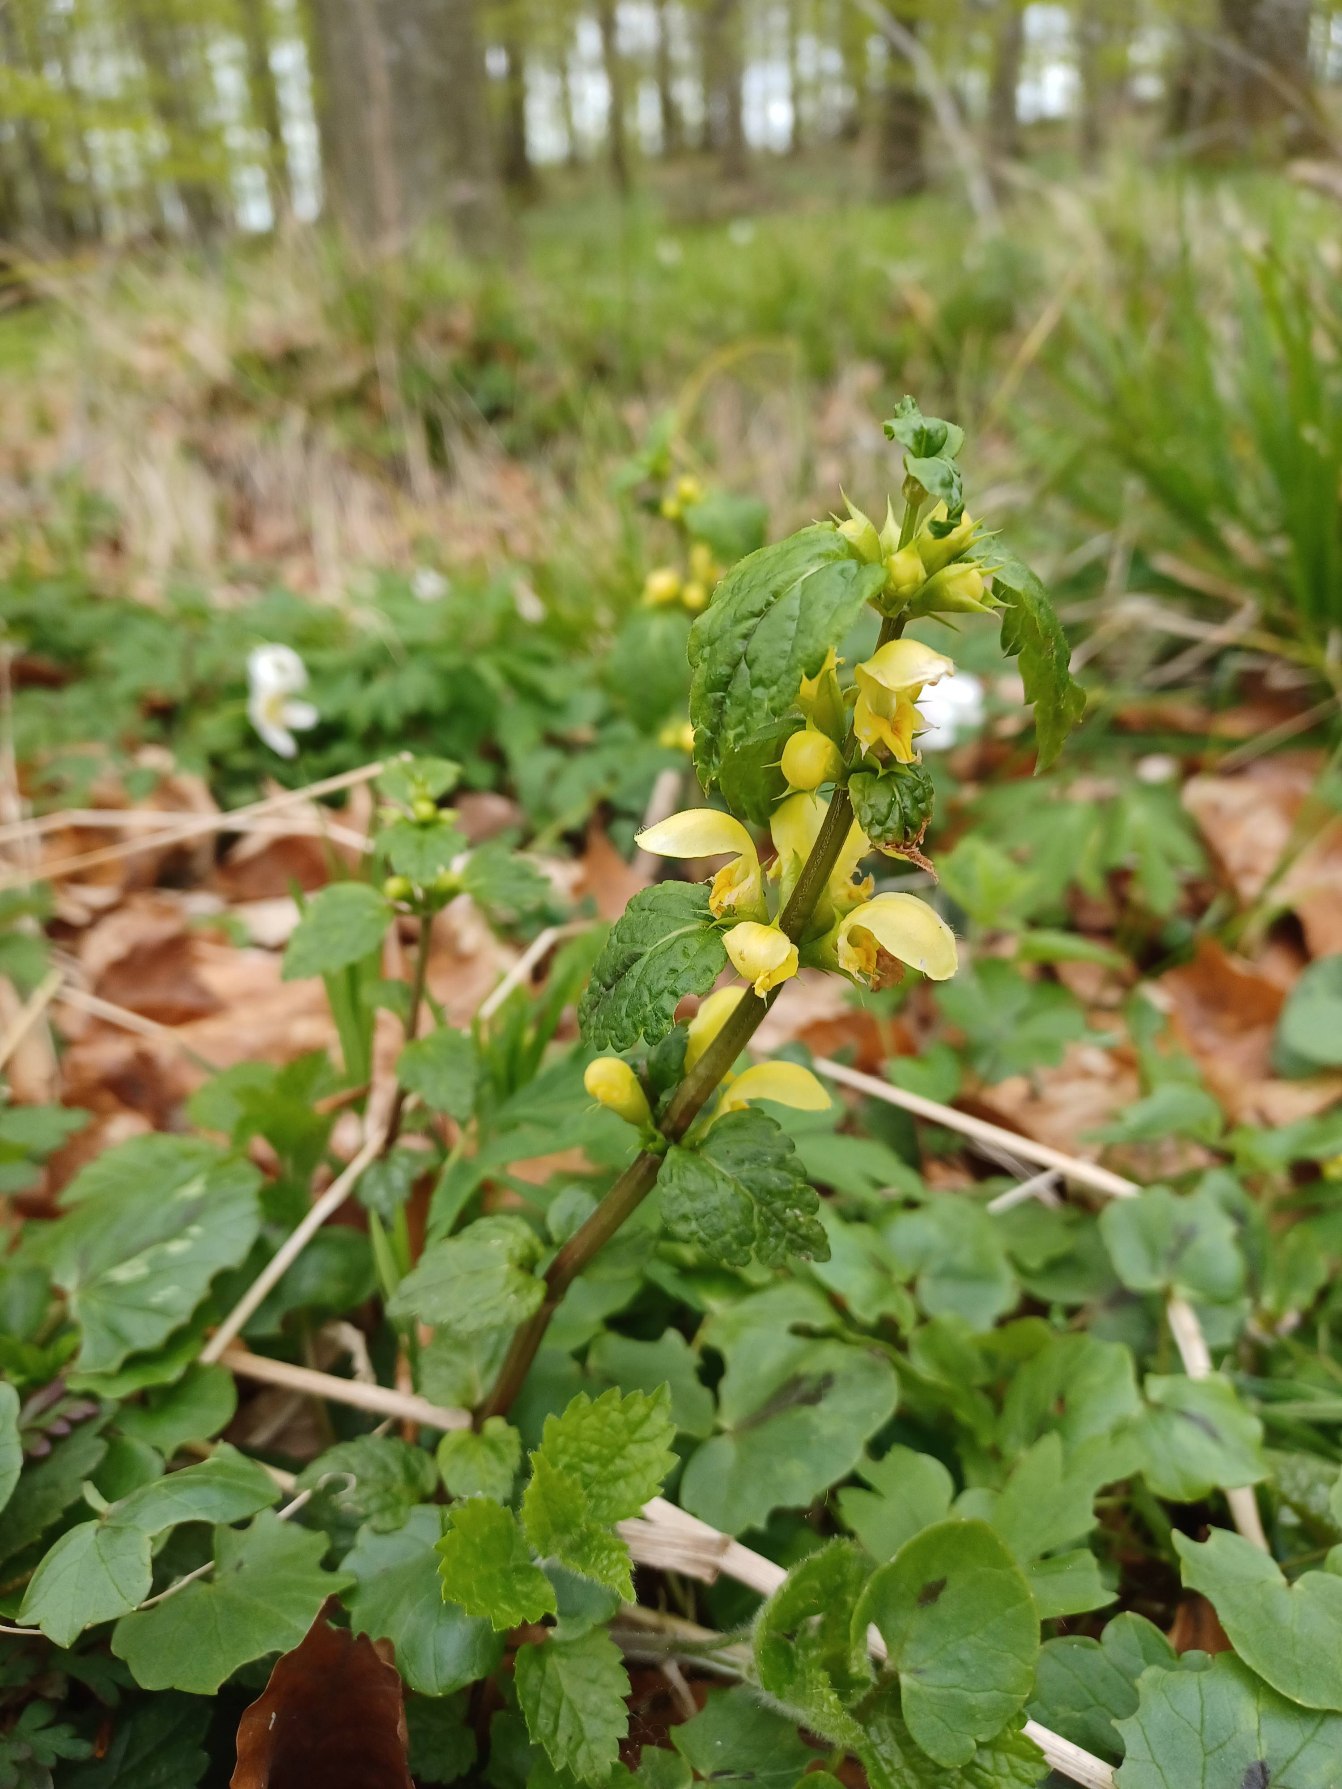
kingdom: Plantae
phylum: Tracheophyta
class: Magnoliopsida
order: Lamiales
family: Lamiaceae
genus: Lamium
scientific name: Lamium galeobdolon
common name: Almindelig guldnælde
